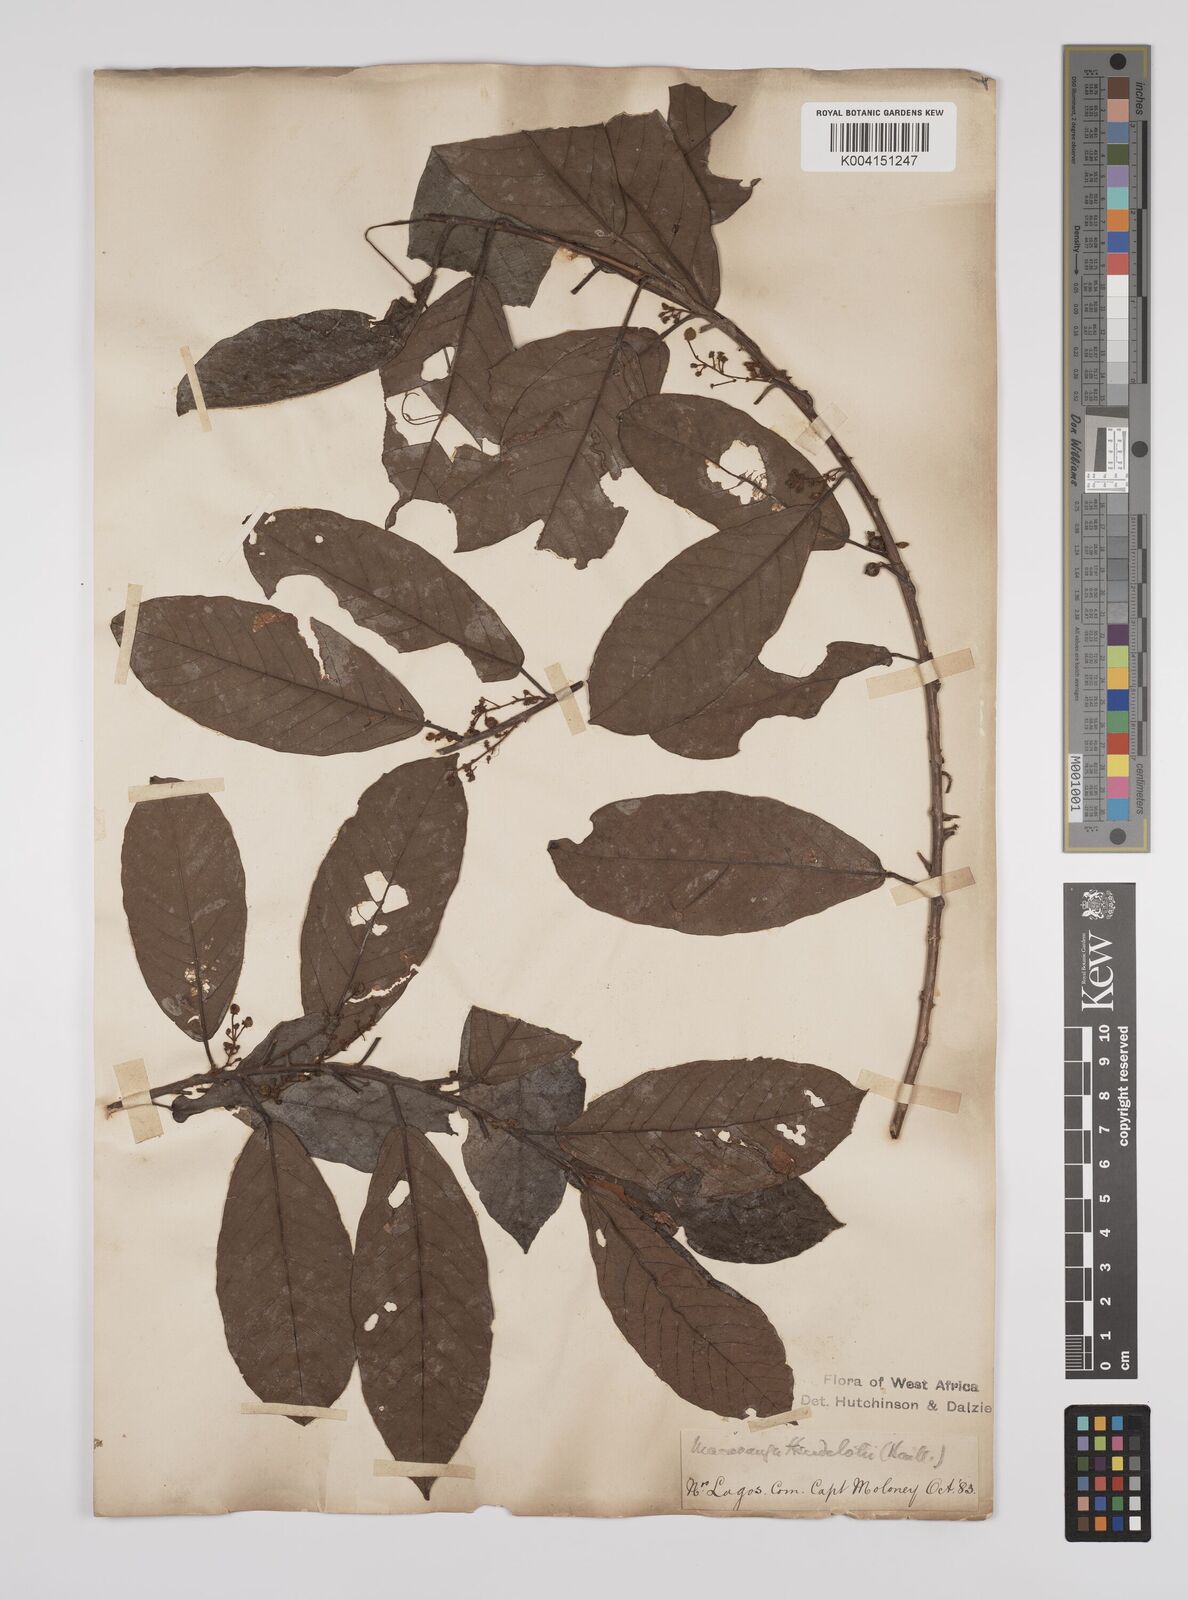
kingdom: Plantae
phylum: Tracheophyta
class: Magnoliopsida
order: Malpighiales
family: Euphorbiaceae
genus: Macaranga
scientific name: Macaranga heudelotii
